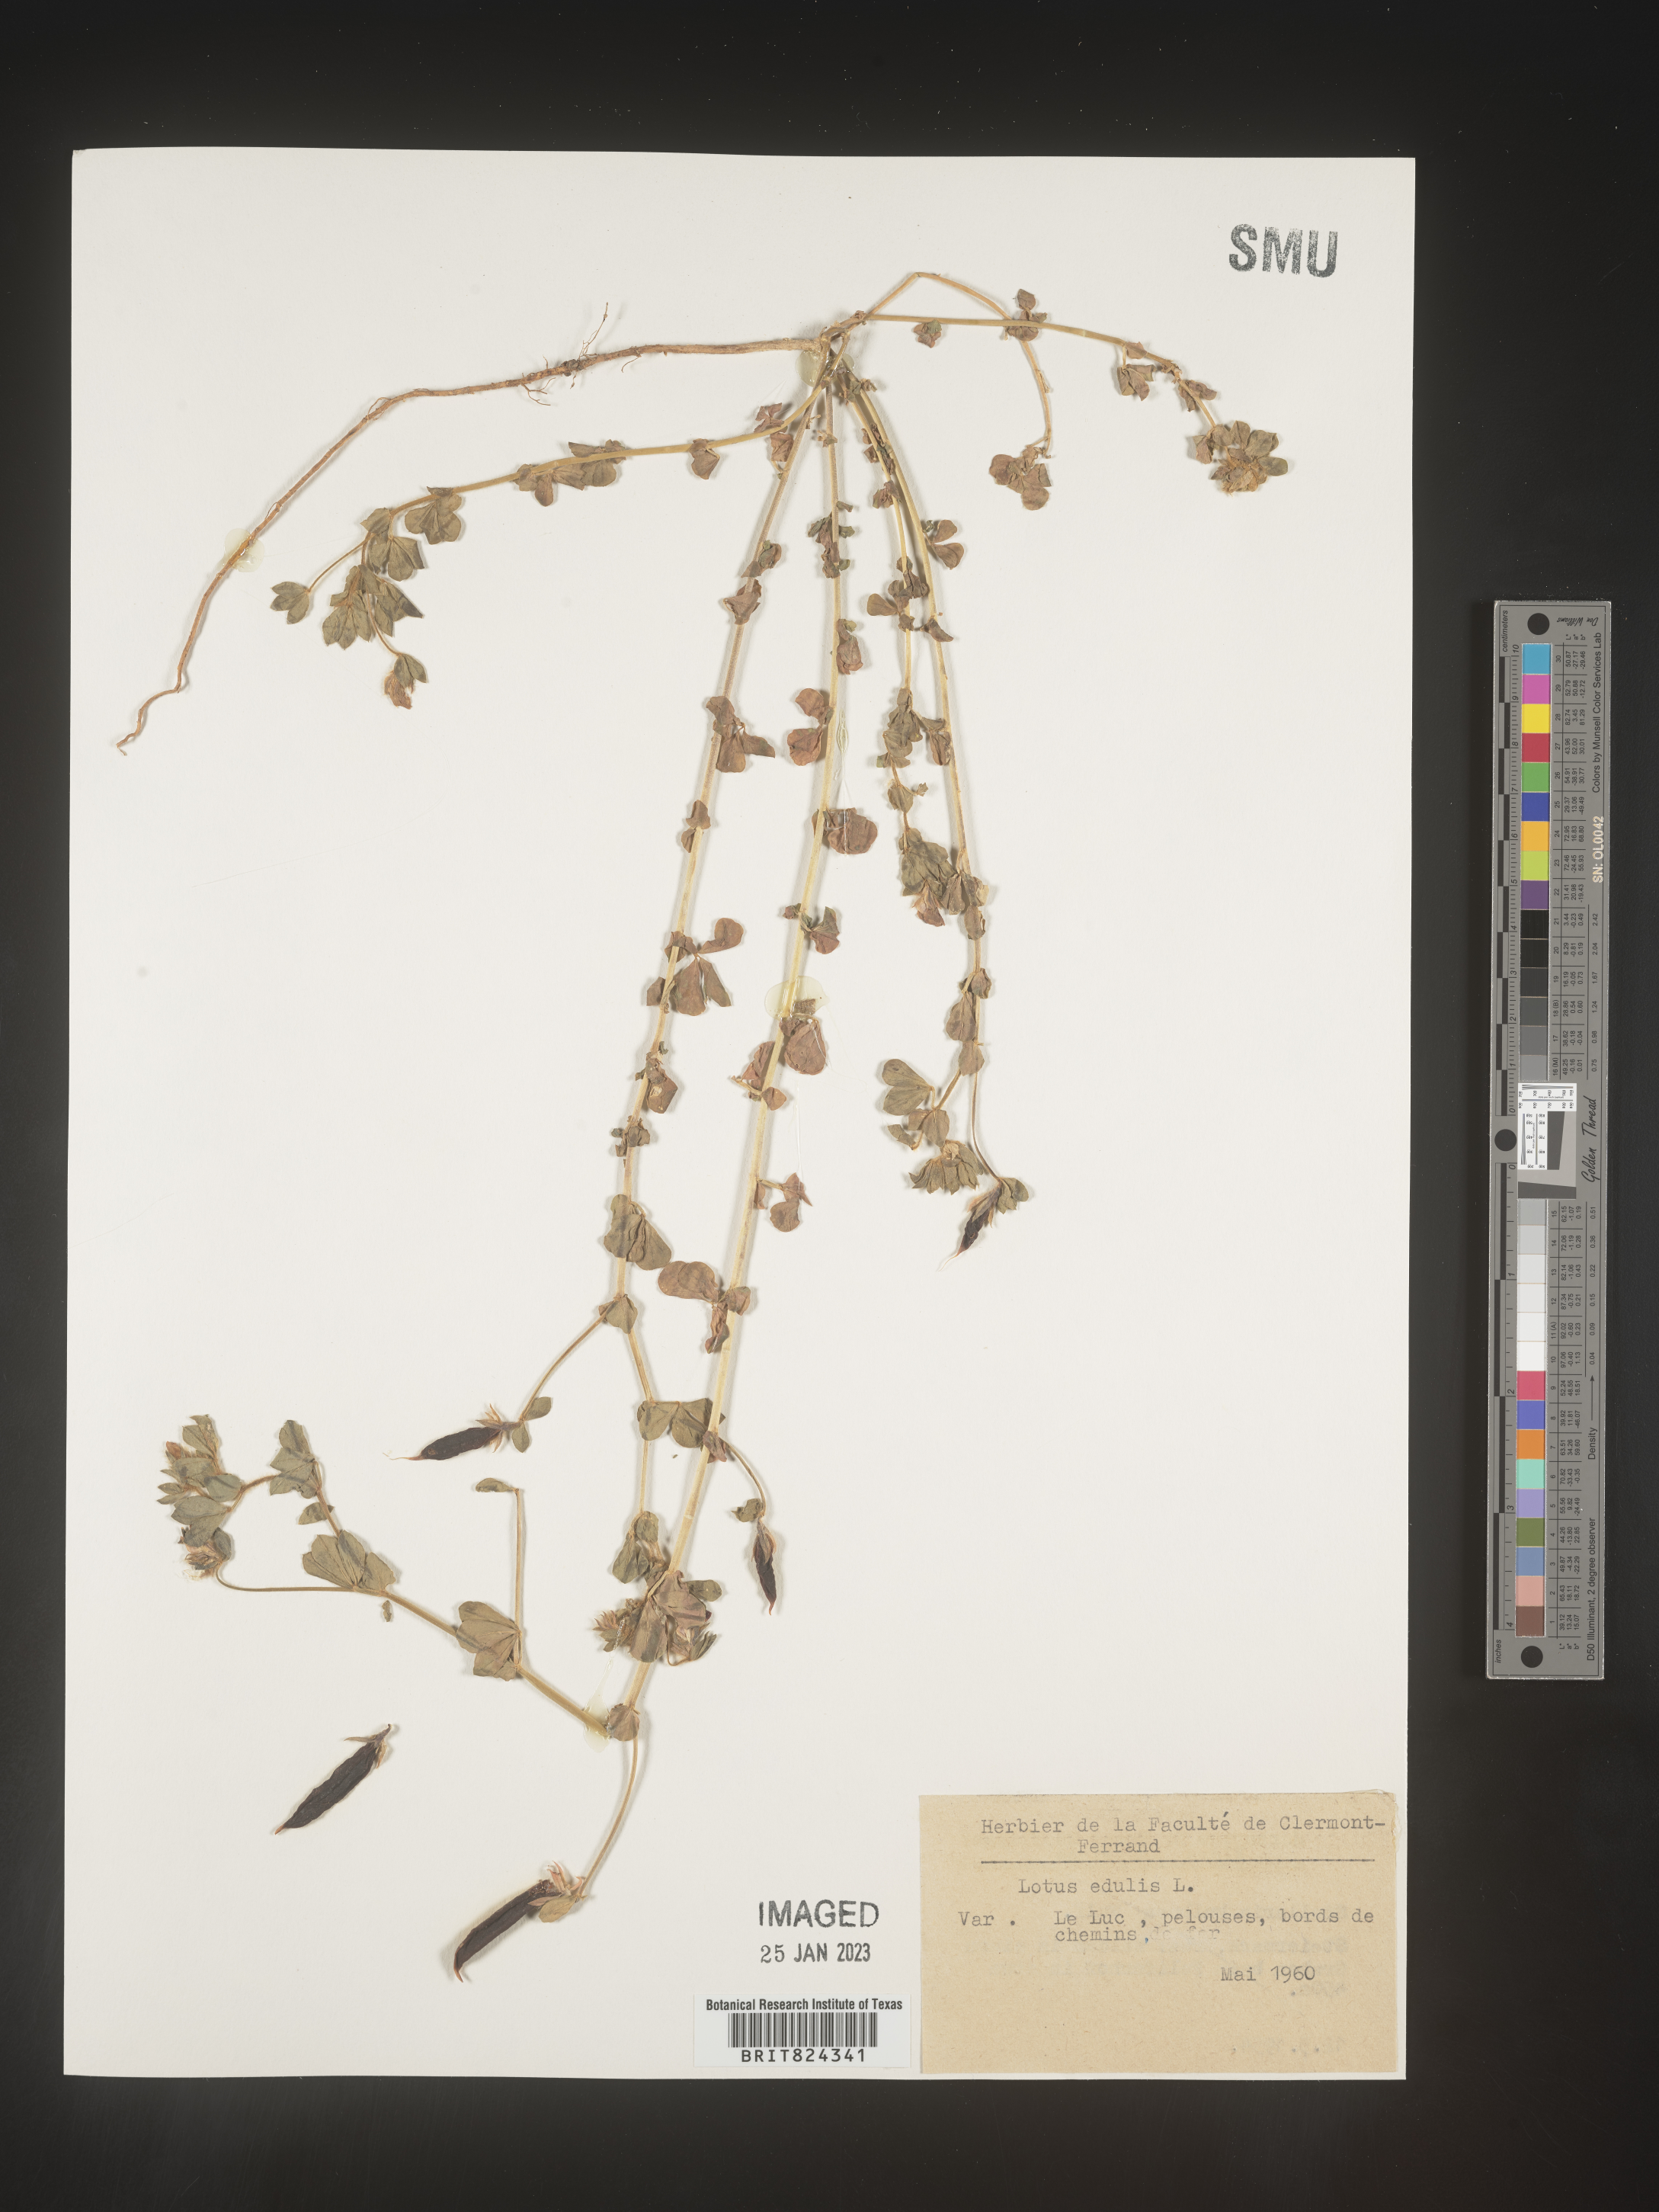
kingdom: Plantae
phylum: Tracheophyta
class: Magnoliopsida
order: Fabales
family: Fabaceae
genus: Lotus
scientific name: Lotus
